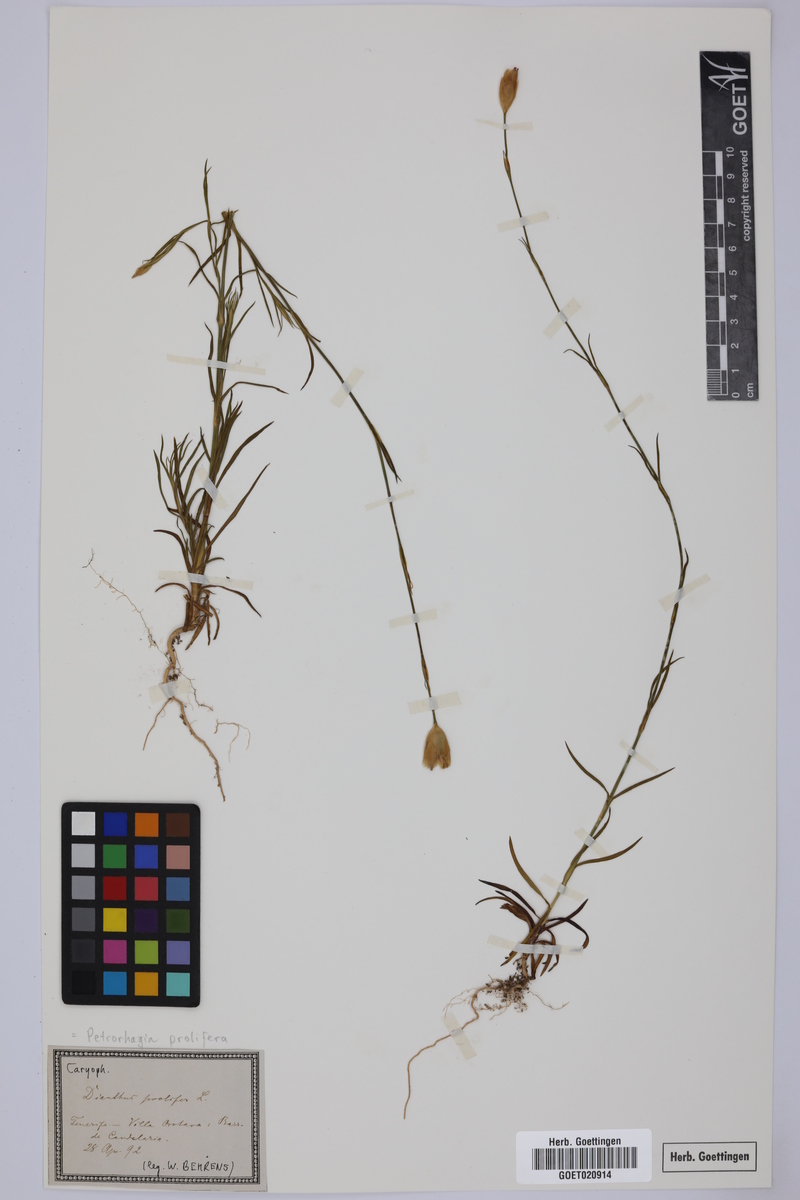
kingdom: Plantae
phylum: Tracheophyta
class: Magnoliopsida
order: Caryophyllales
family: Caryophyllaceae
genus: Petrorhagia
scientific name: Petrorhagia prolifera
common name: Proliferous pink
